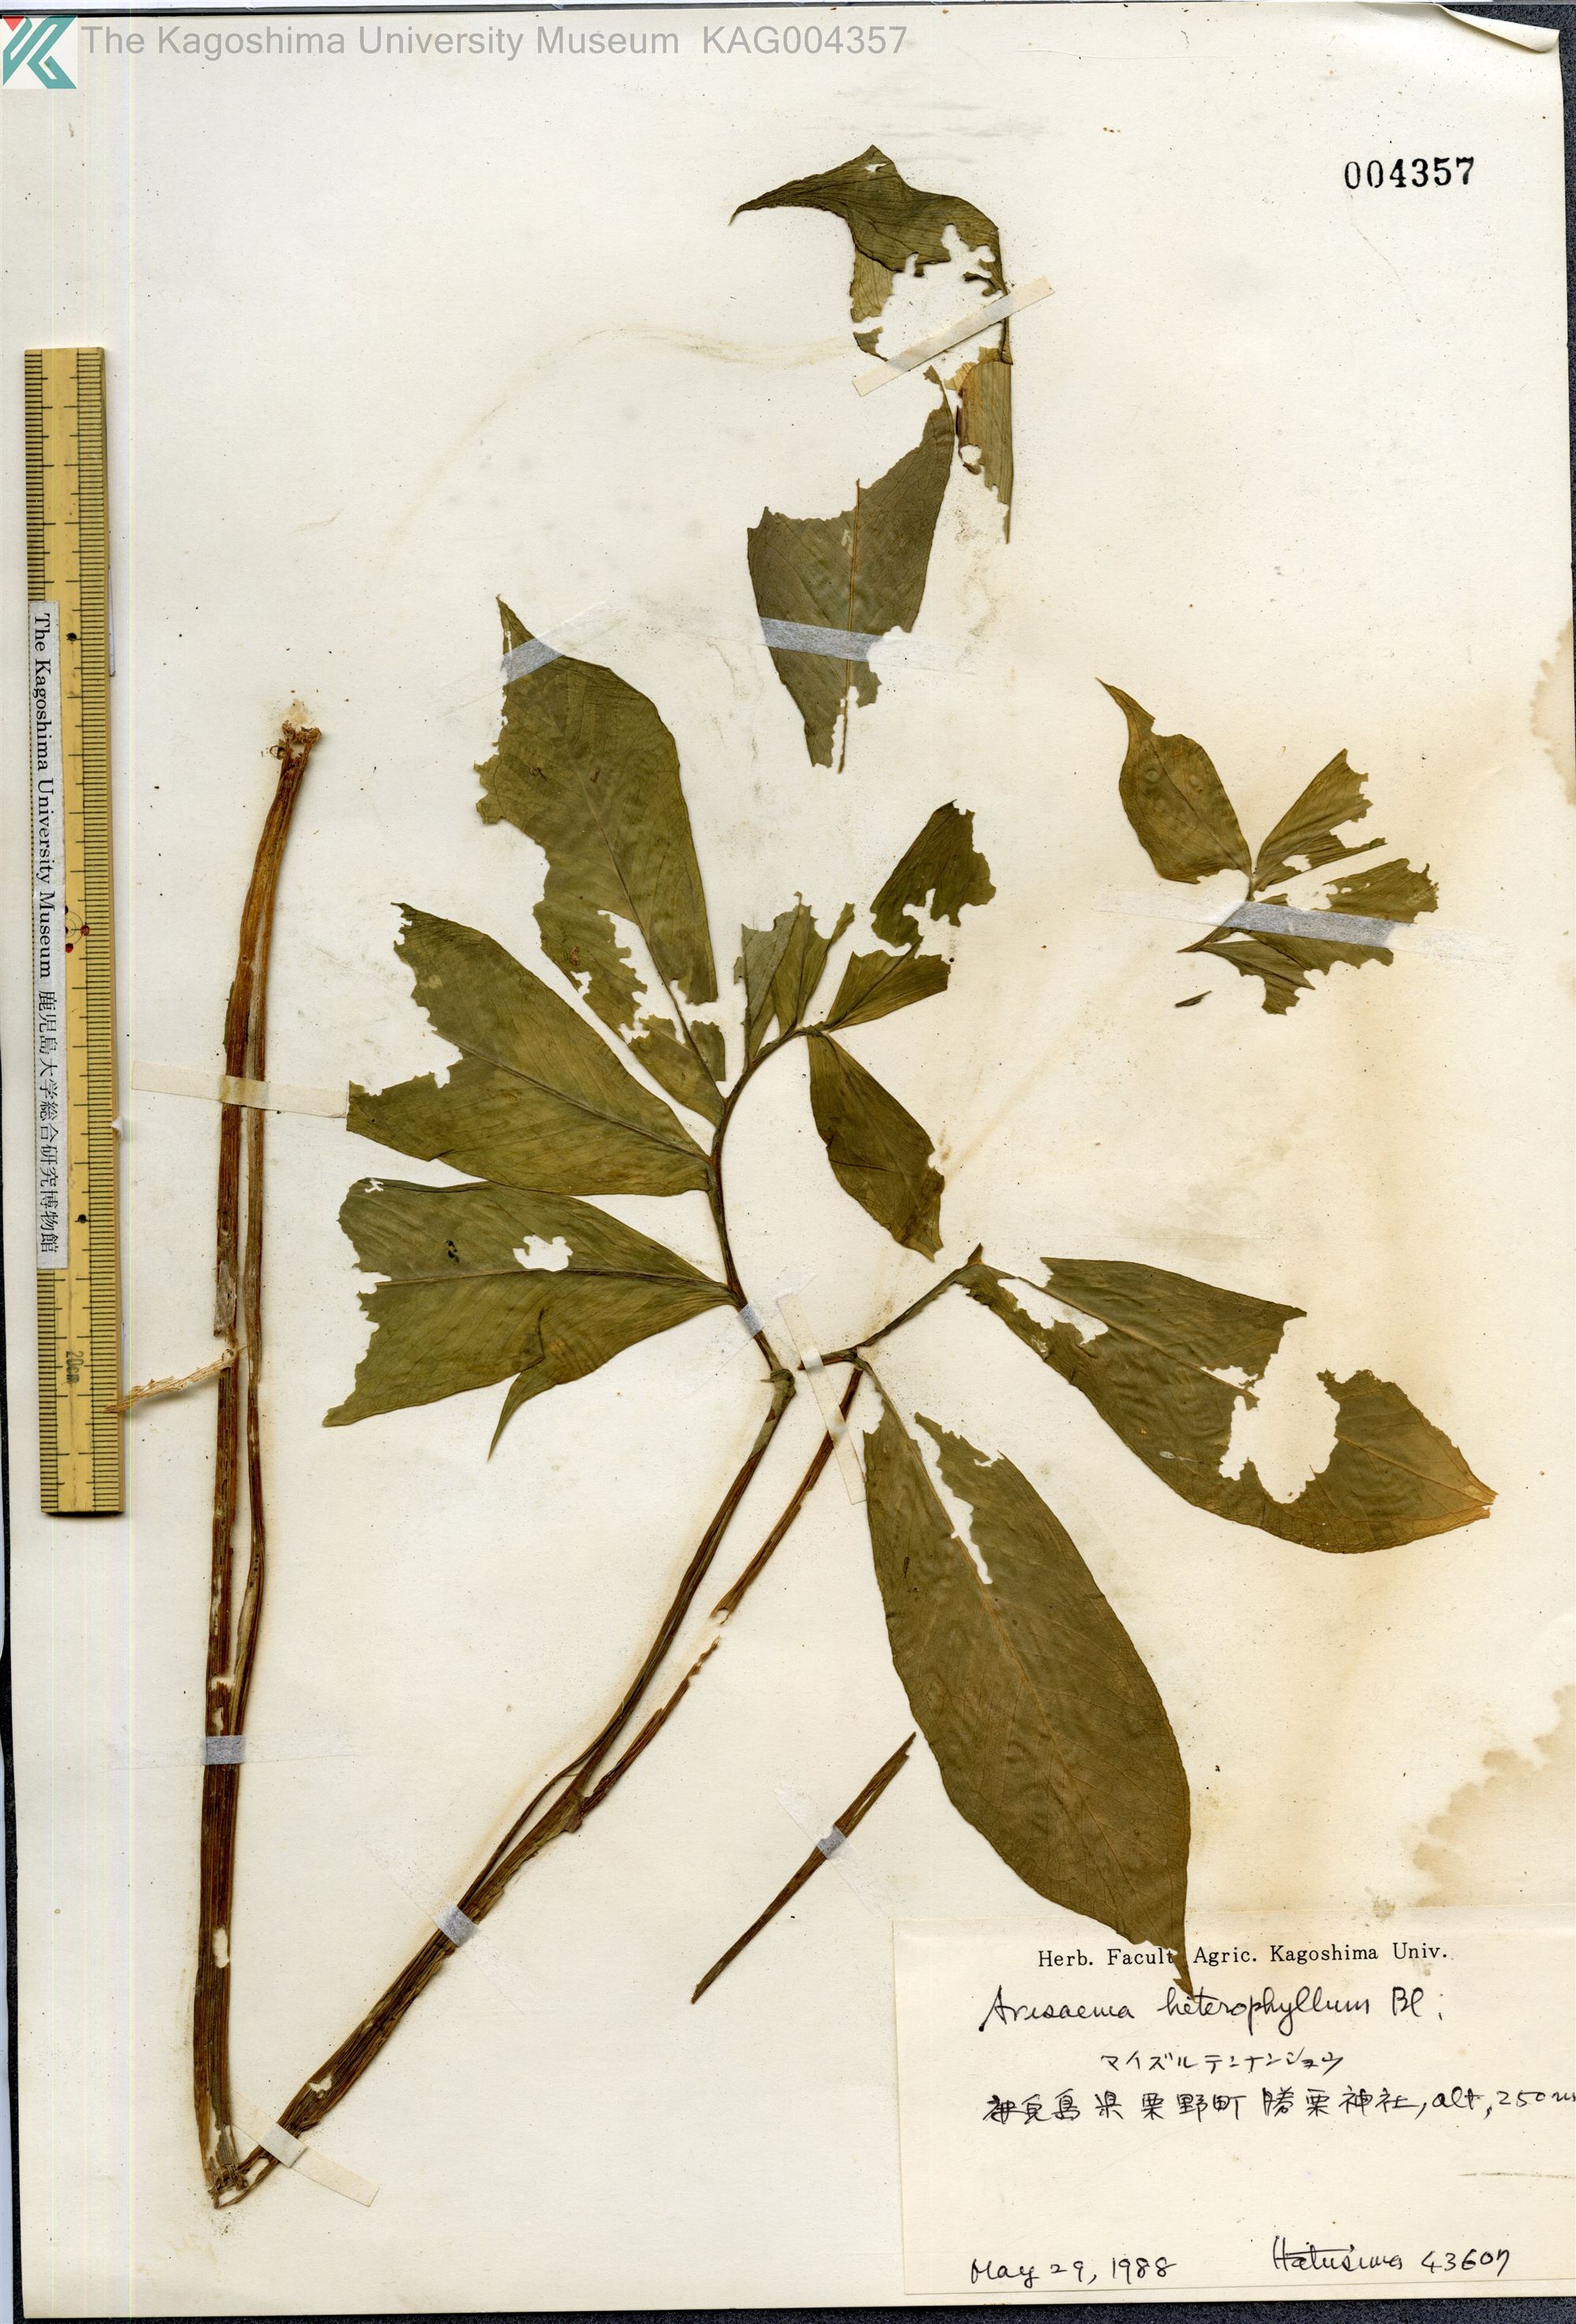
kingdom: Plantae
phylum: Tracheophyta
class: Liliopsida
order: Alismatales
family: Araceae
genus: Arisaema
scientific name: Arisaema heterophyllum
